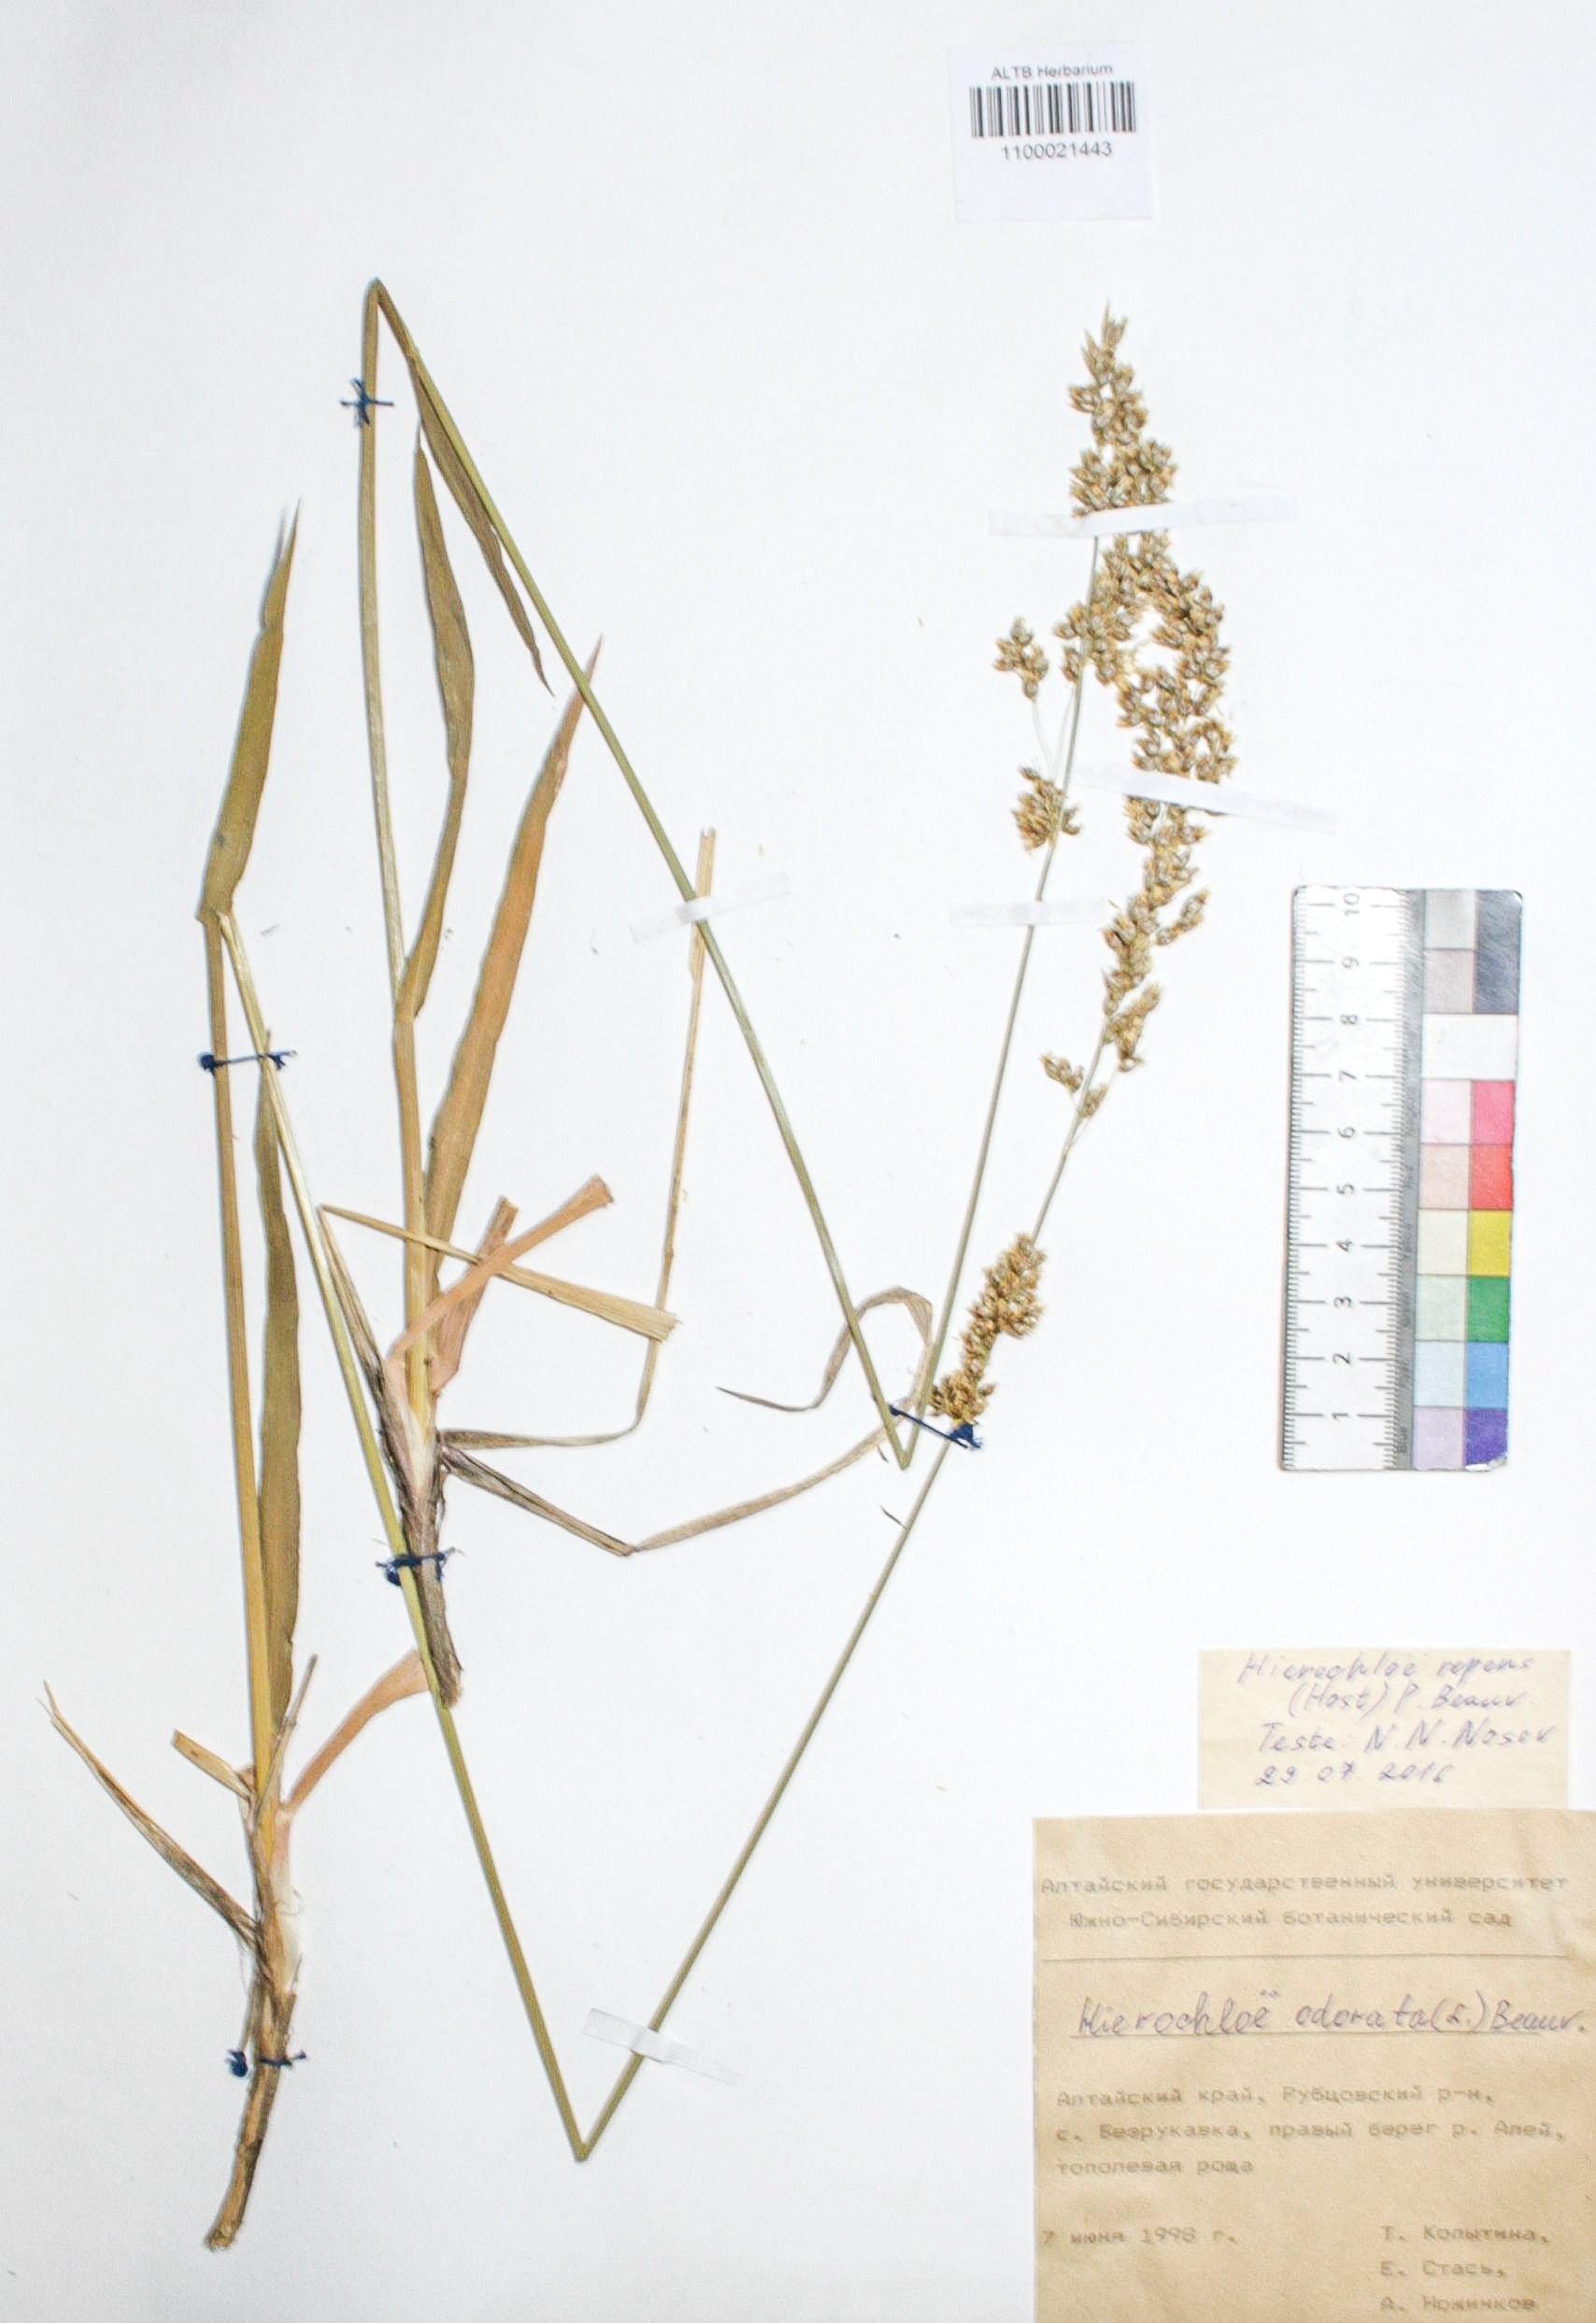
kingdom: Plantae
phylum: Tracheophyta
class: Liliopsida
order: Poales
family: Poaceae
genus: Anthoxanthum
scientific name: Anthoxanthum repens
